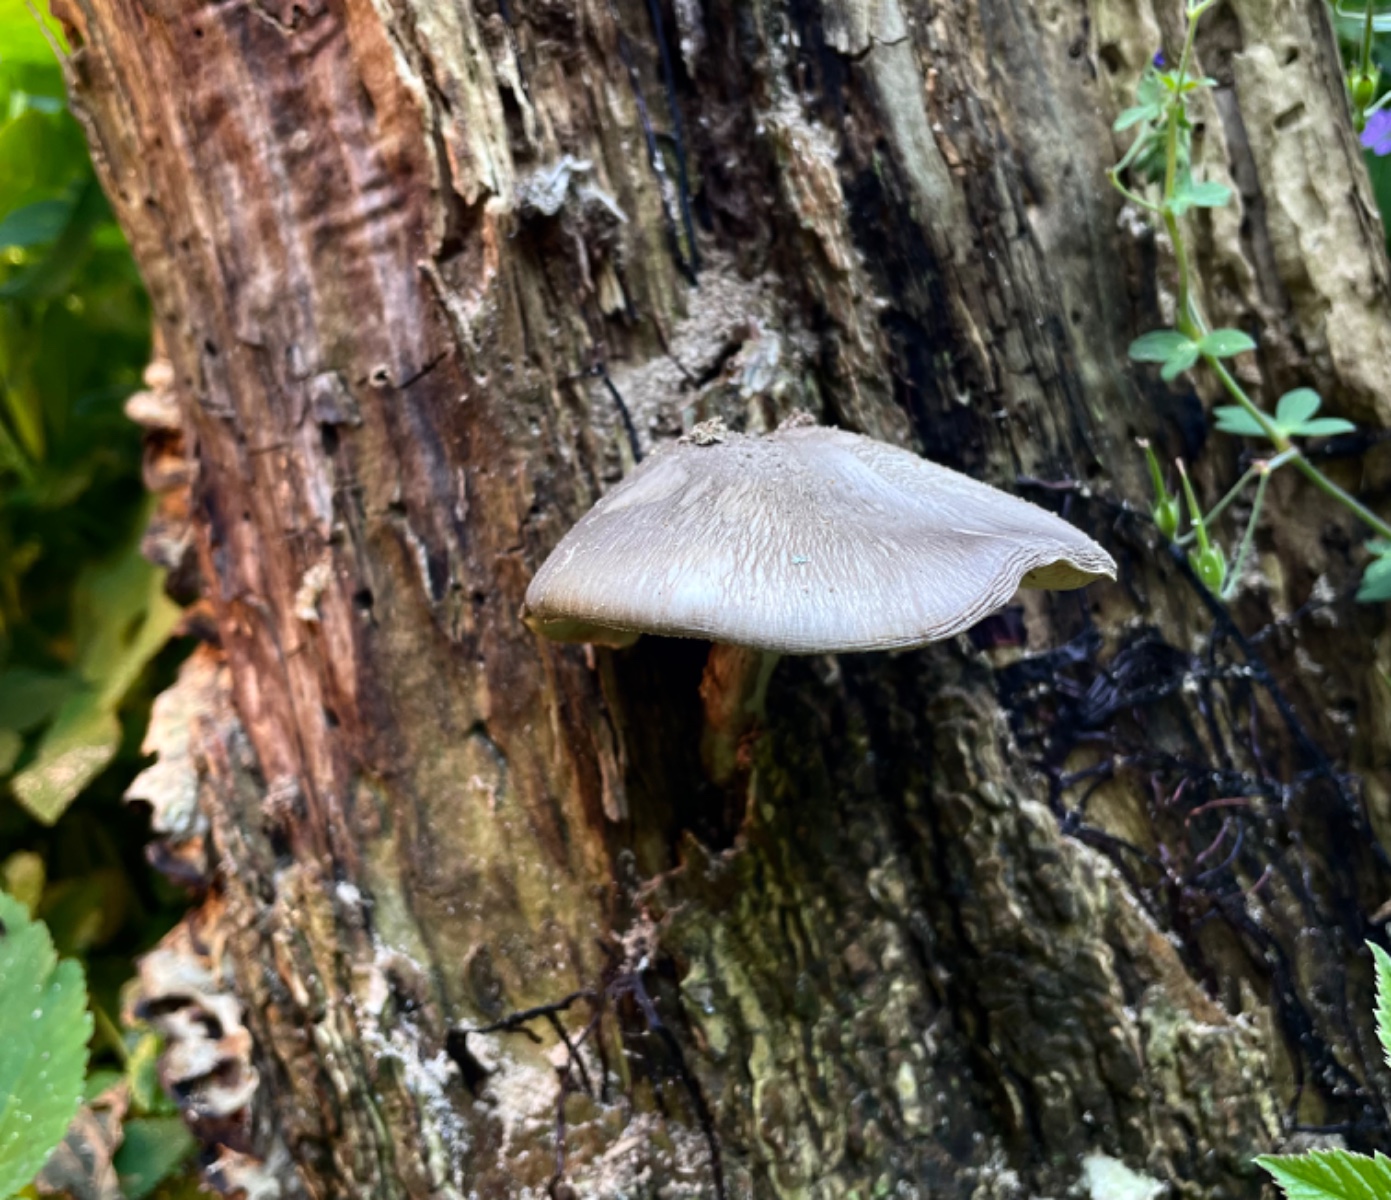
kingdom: Fungi
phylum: Basidiomycota
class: Agaricomycetes
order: Agaricales
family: Pluteaceae
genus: Pluteus
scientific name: Pluteus
